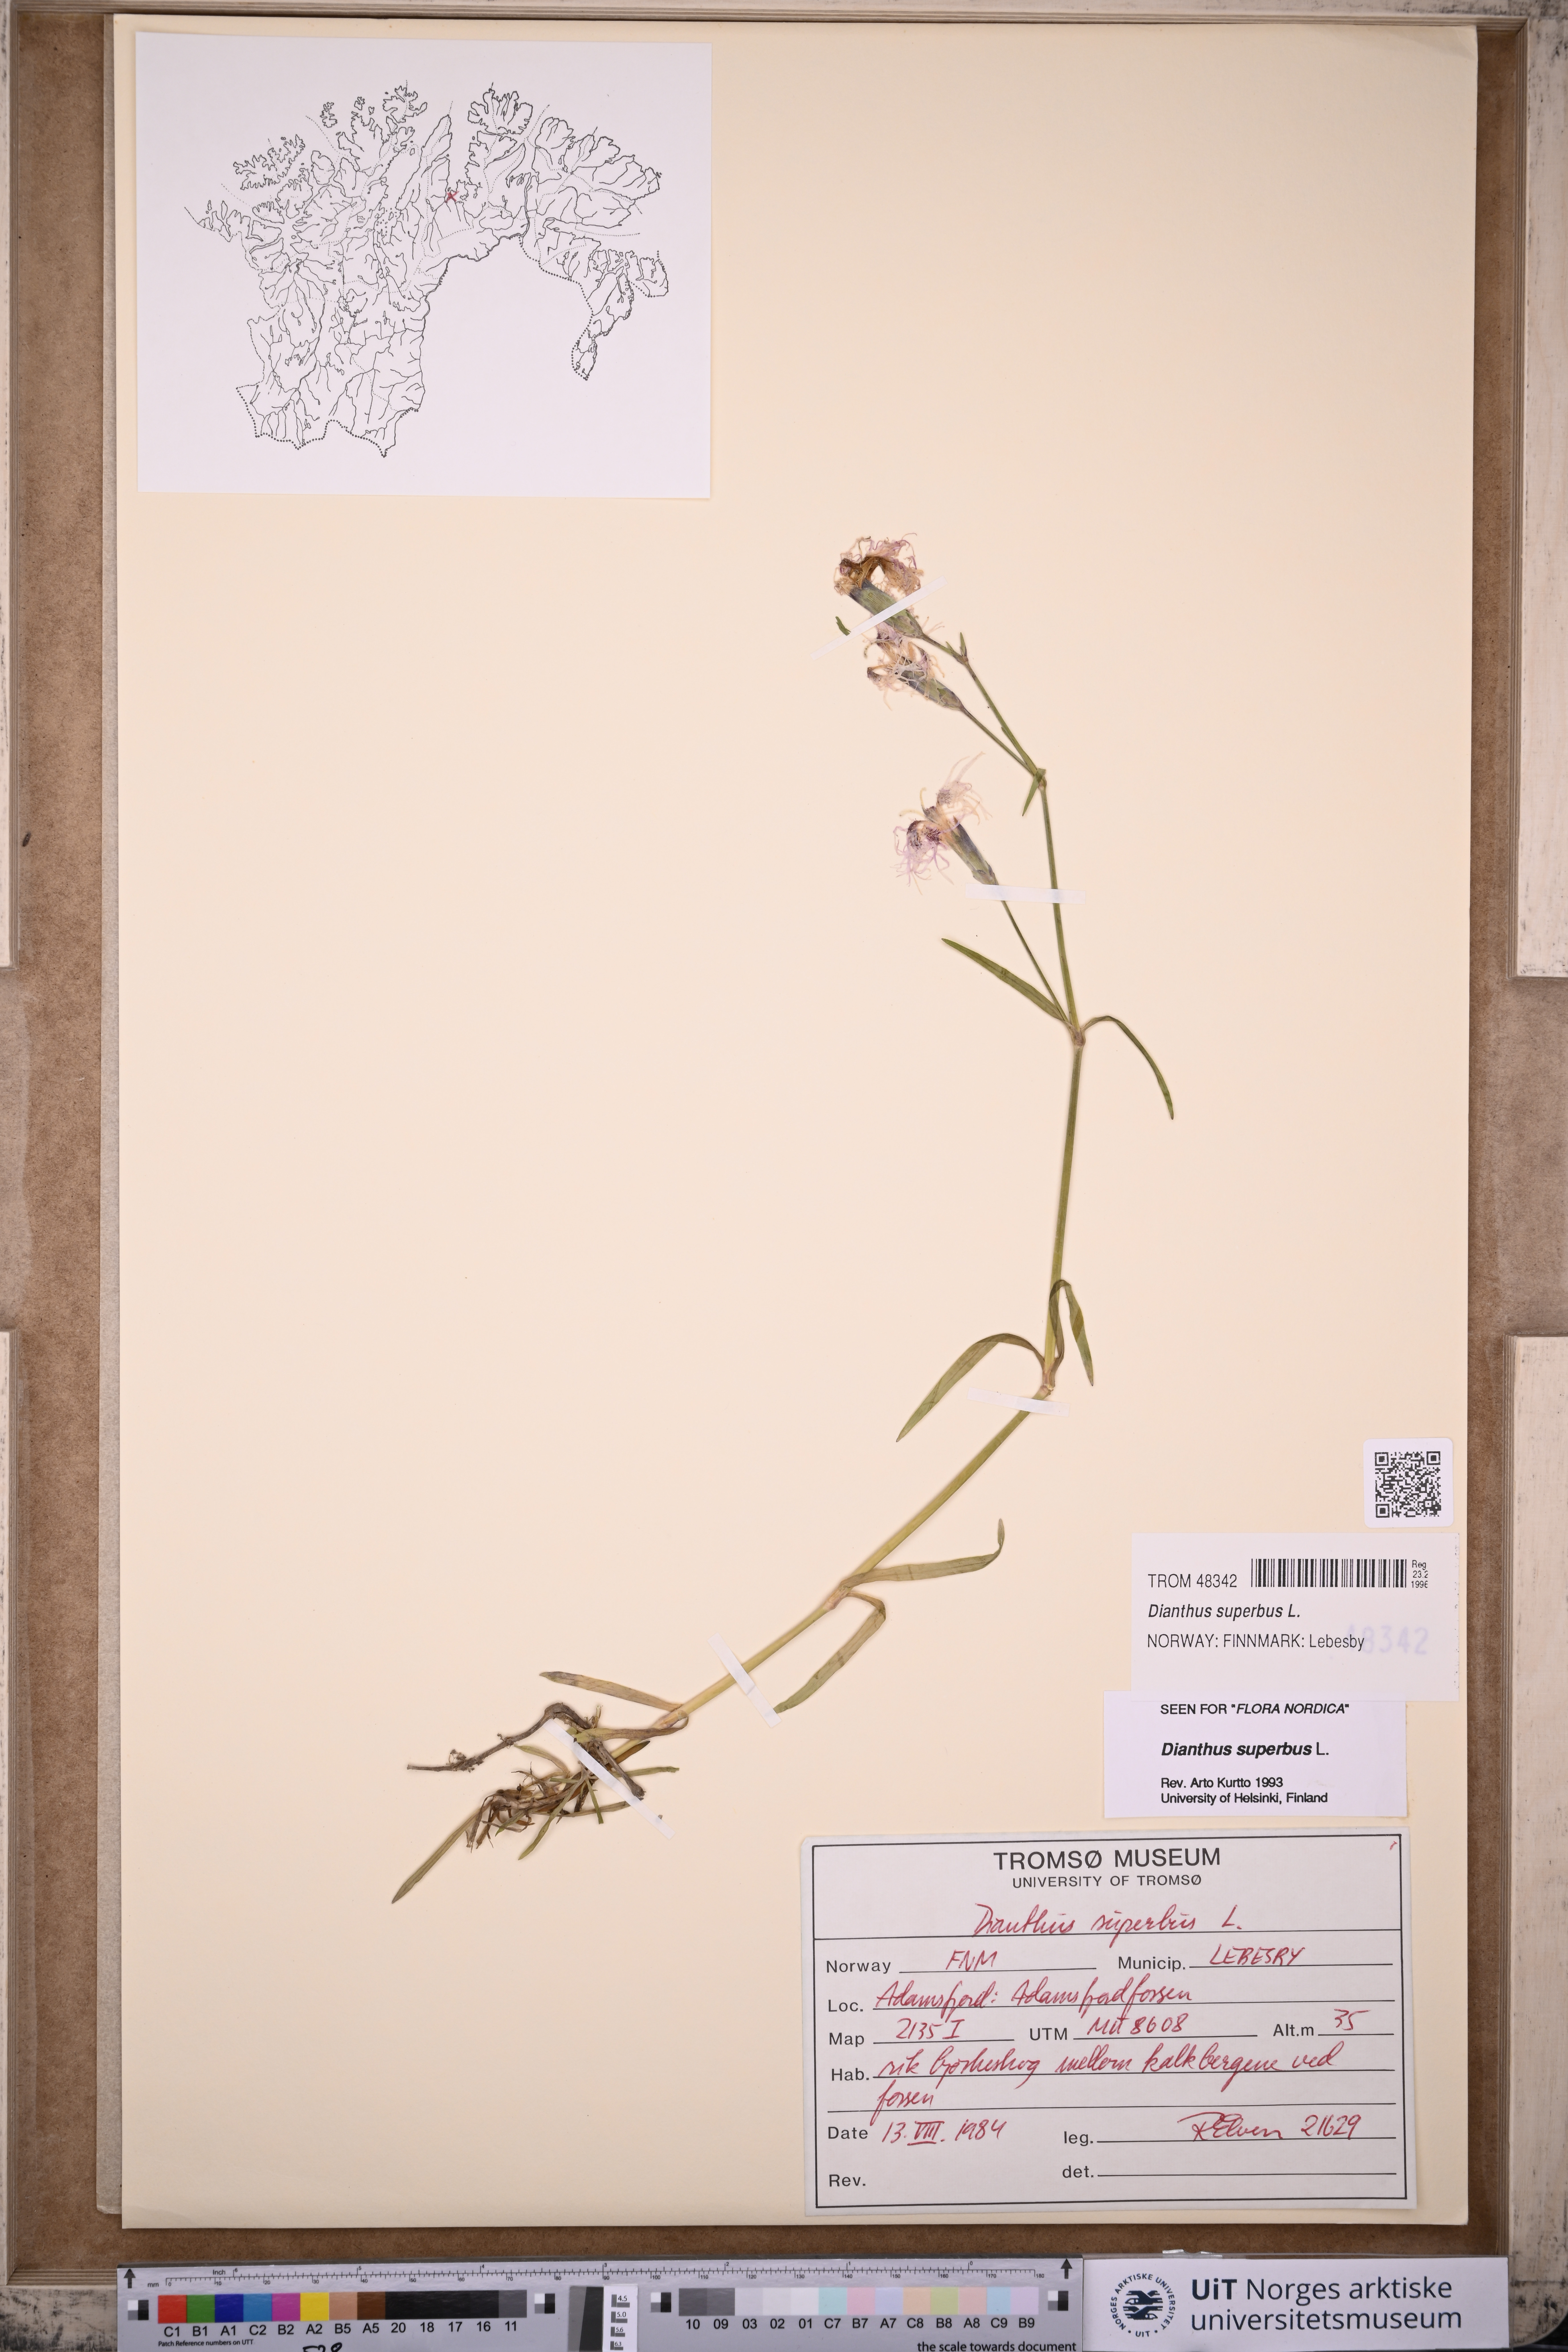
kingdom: Plantae
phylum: Tracheophyta
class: Magnoliopsida
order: Caryophyllales
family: Caryophyllaceae
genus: Dianthus
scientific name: Dianthus superbus
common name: Fringed pink
